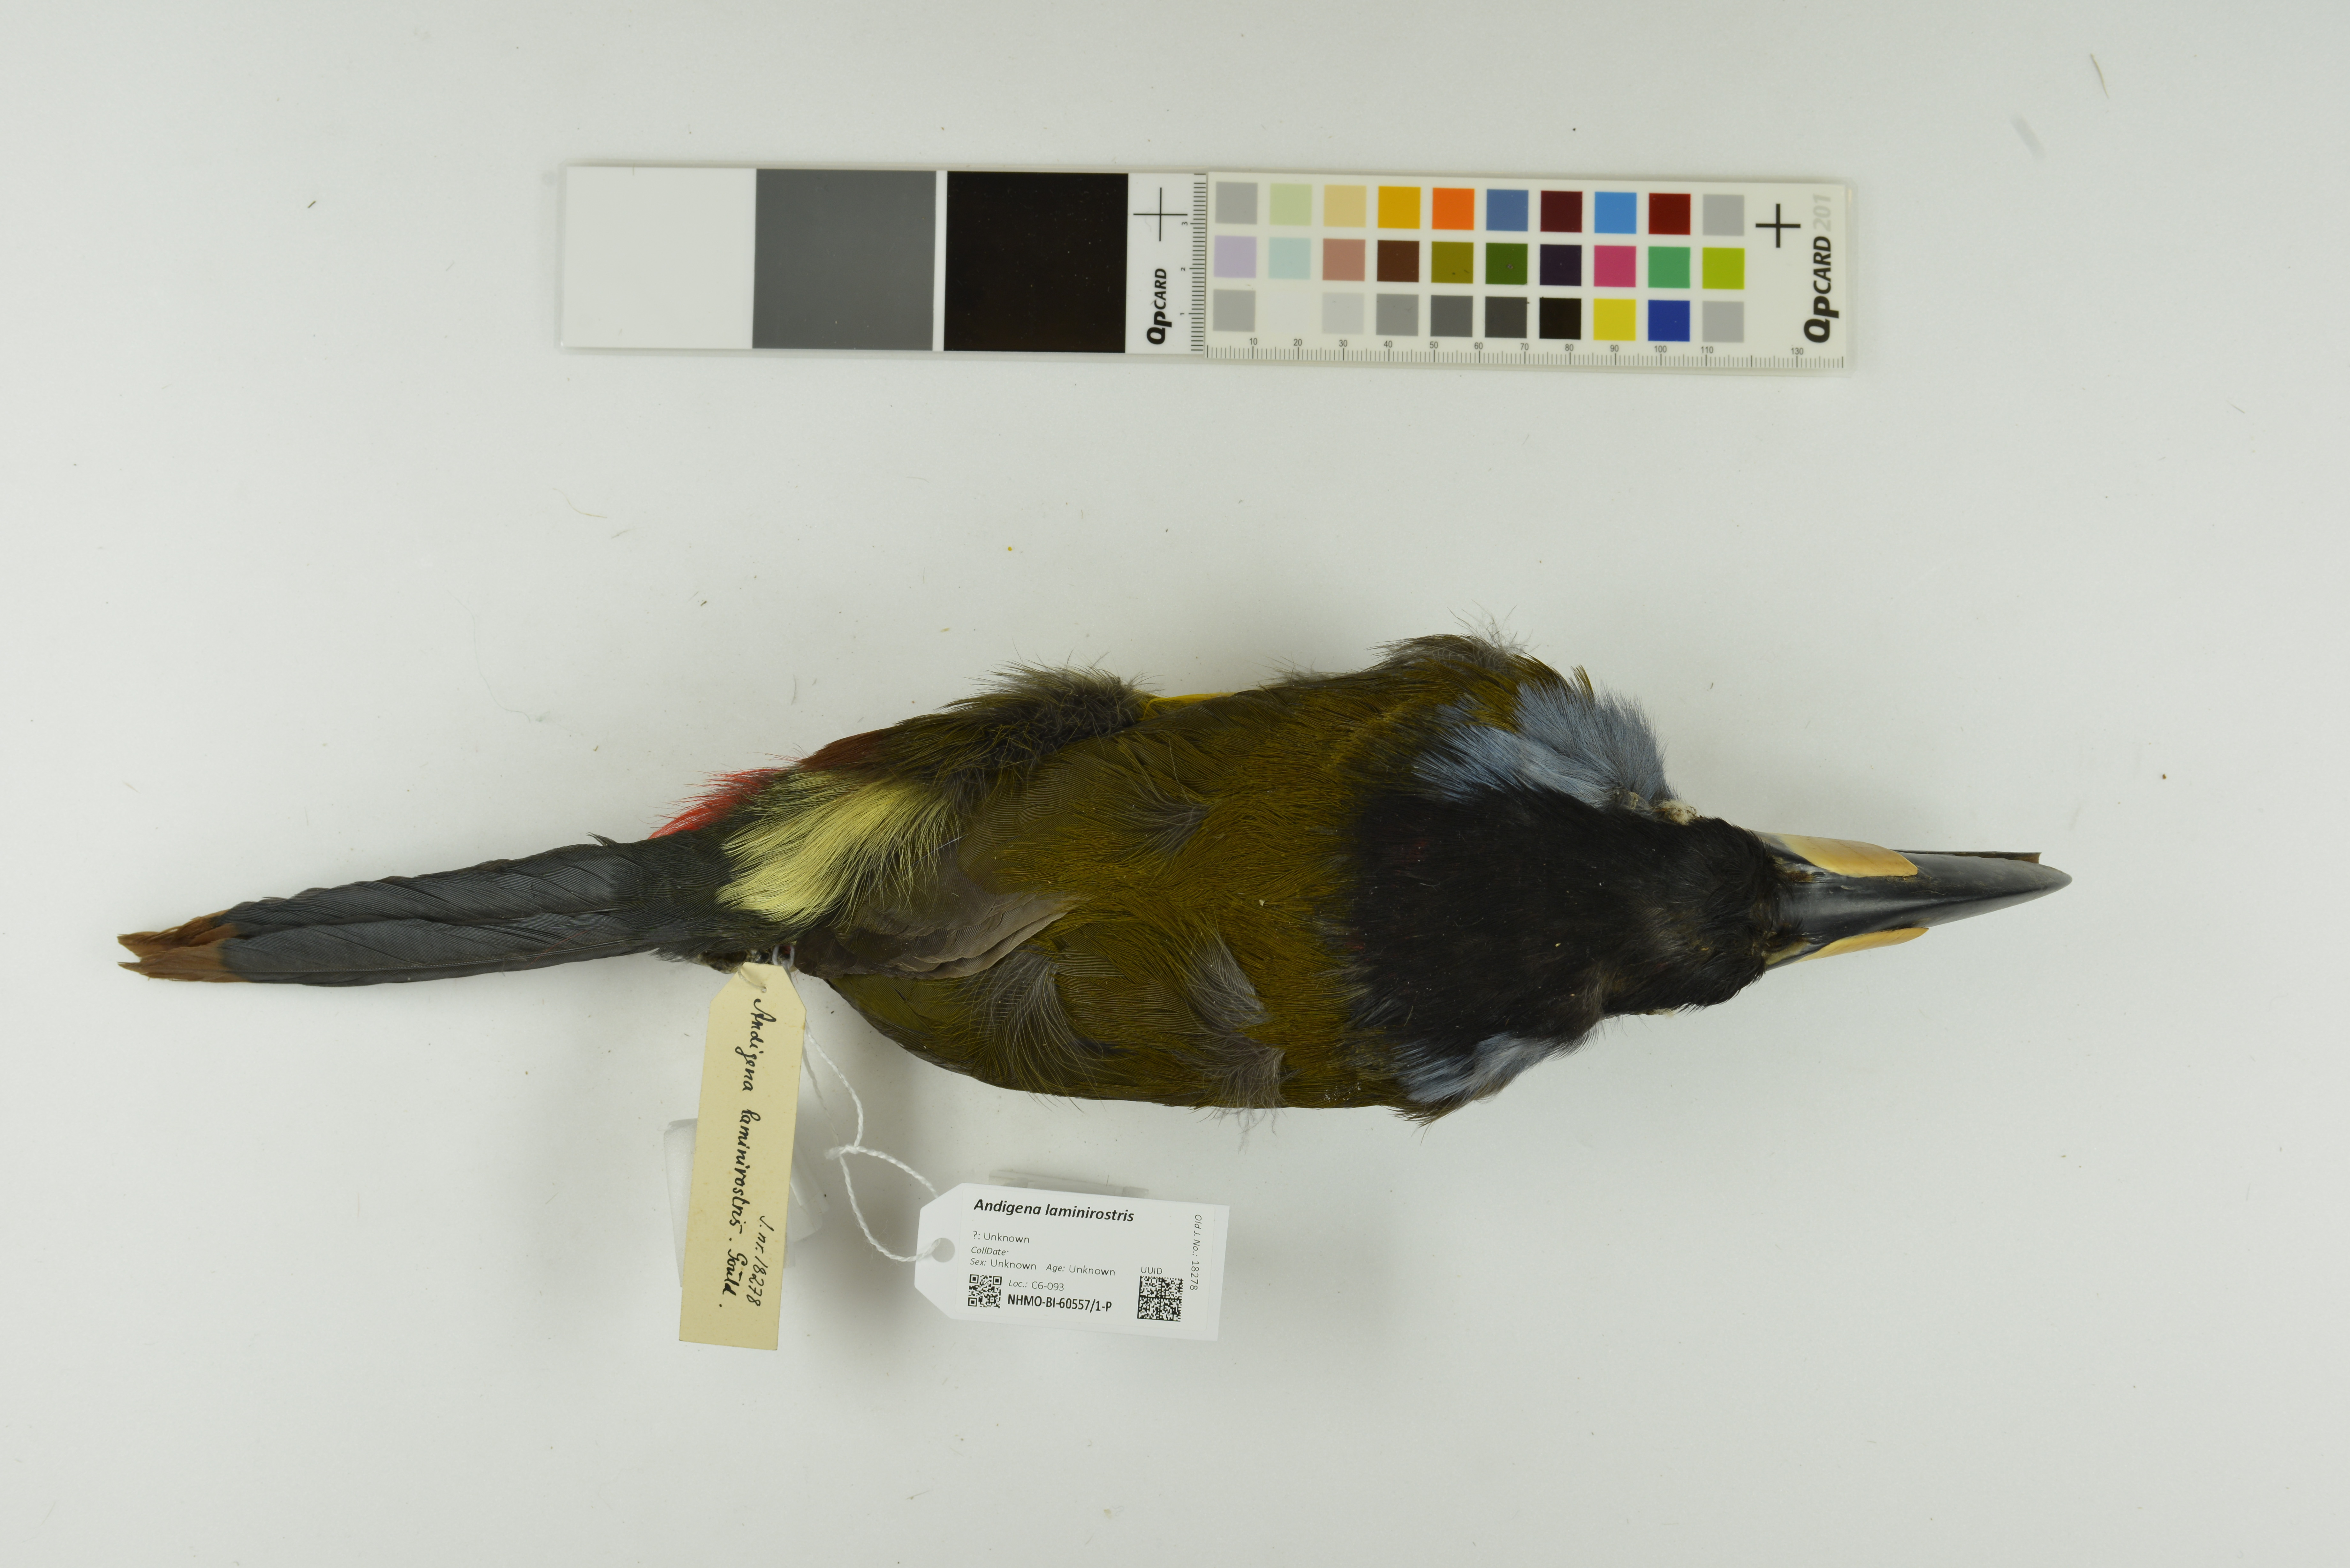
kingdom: Animalia
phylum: Chordata
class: Aves
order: Piciformes
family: Ramphastidae
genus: Andigena
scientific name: Andigena laminirostris
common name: Plate-billed mountain toucan
